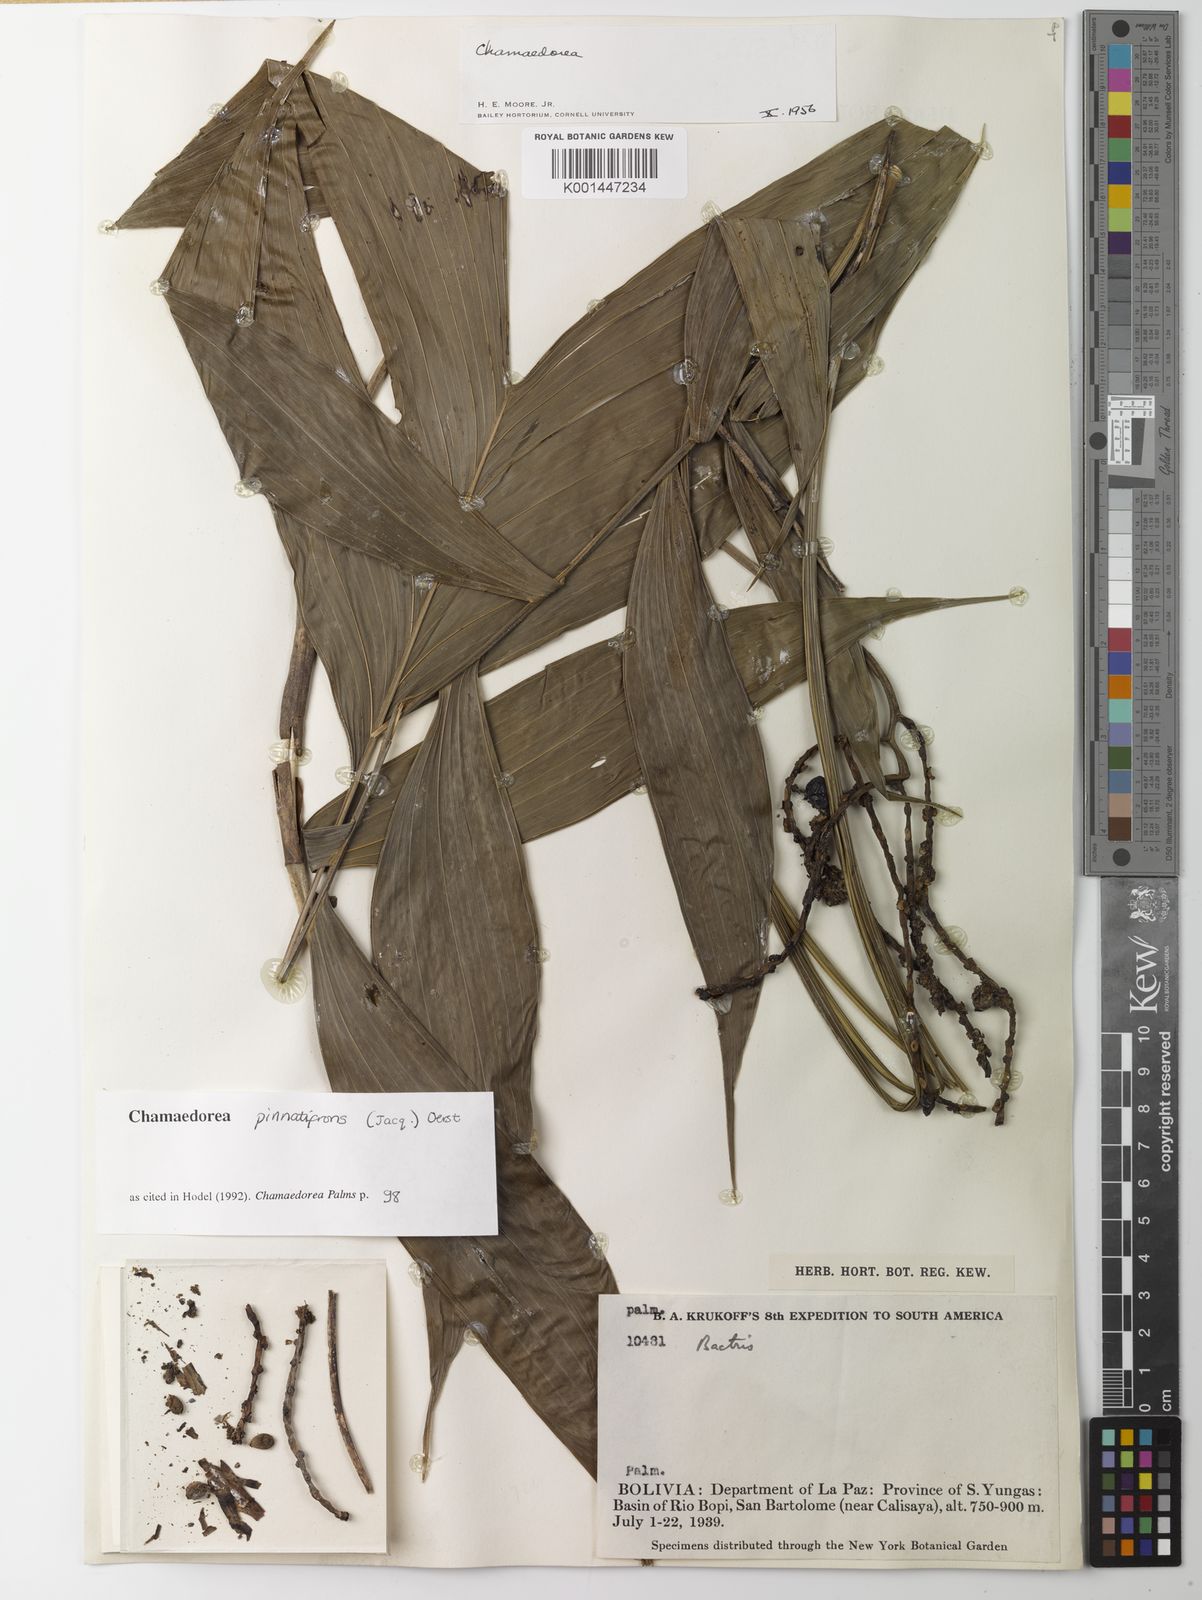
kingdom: Plantae
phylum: Tracheophyta
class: Liliopsida
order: Arecales
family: Arecaceae
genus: Chamaedorea
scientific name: Chamaedorea pinnatifrons
